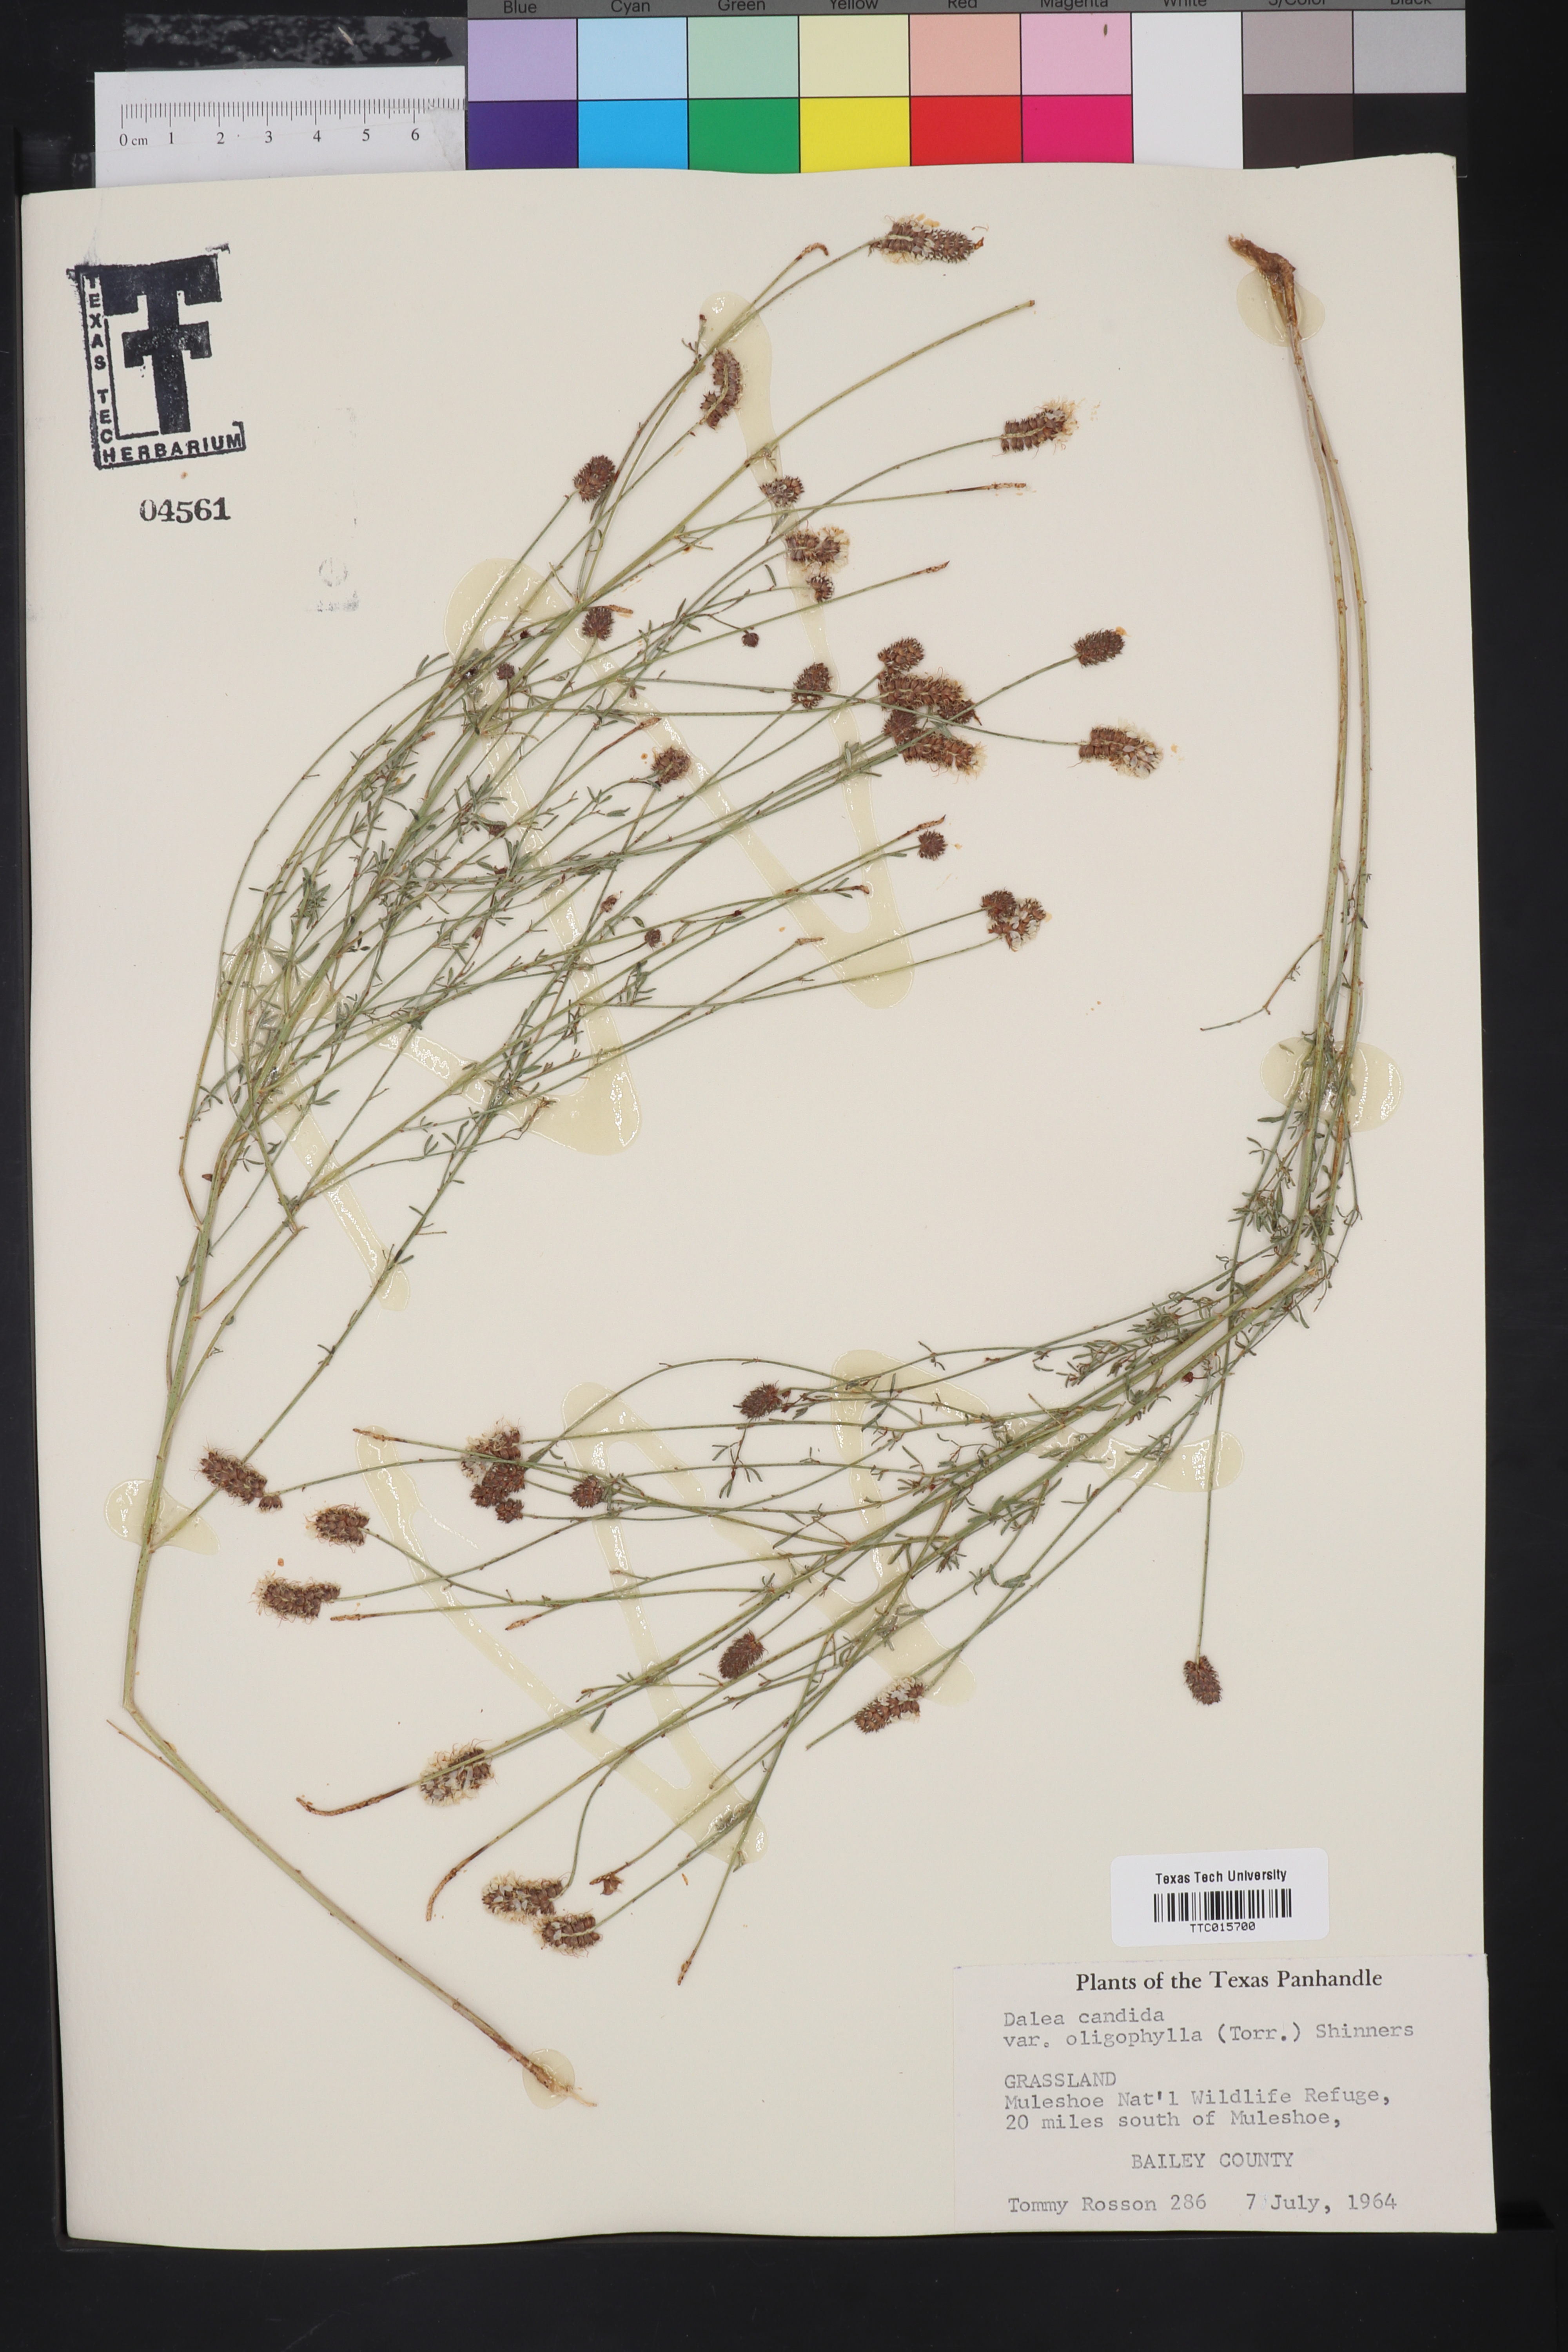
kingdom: Plantae
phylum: Tracheophyta
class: Magnoliopsida
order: Fabales
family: Fabaceae
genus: Petalostemum
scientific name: Petalostemum
